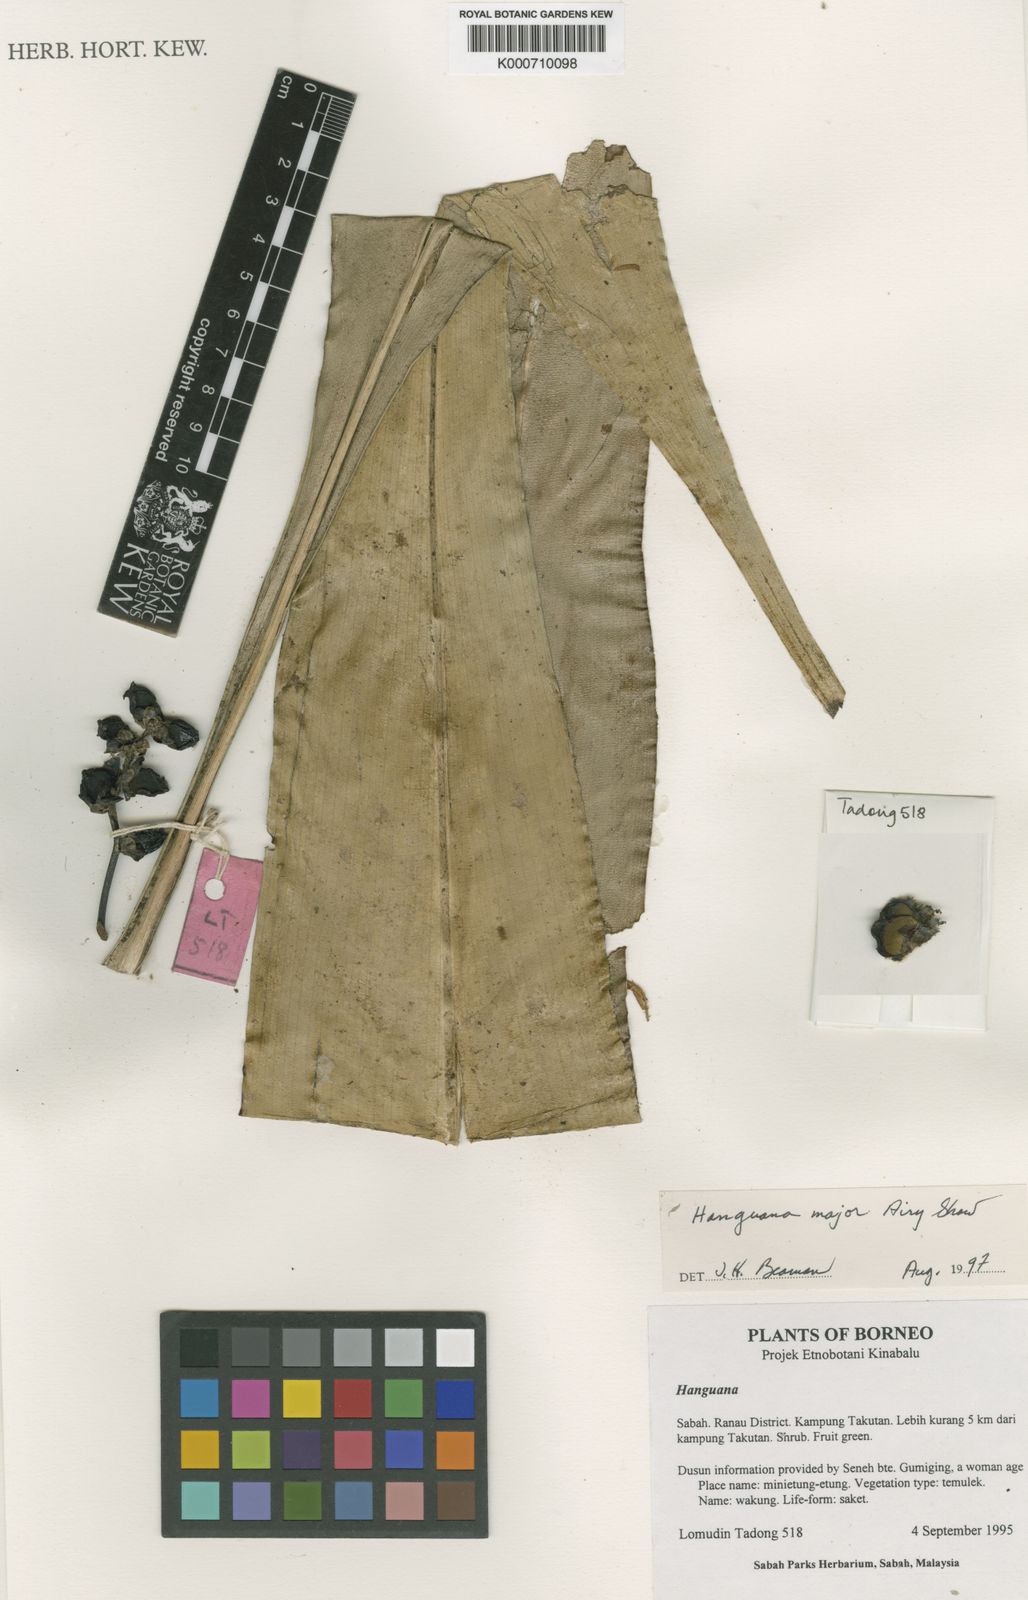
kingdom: Plantae
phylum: Tracheophyta
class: Liliopsida
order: Commelinales
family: Hanguanaceae
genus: Hanguana
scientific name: Hanguana major
